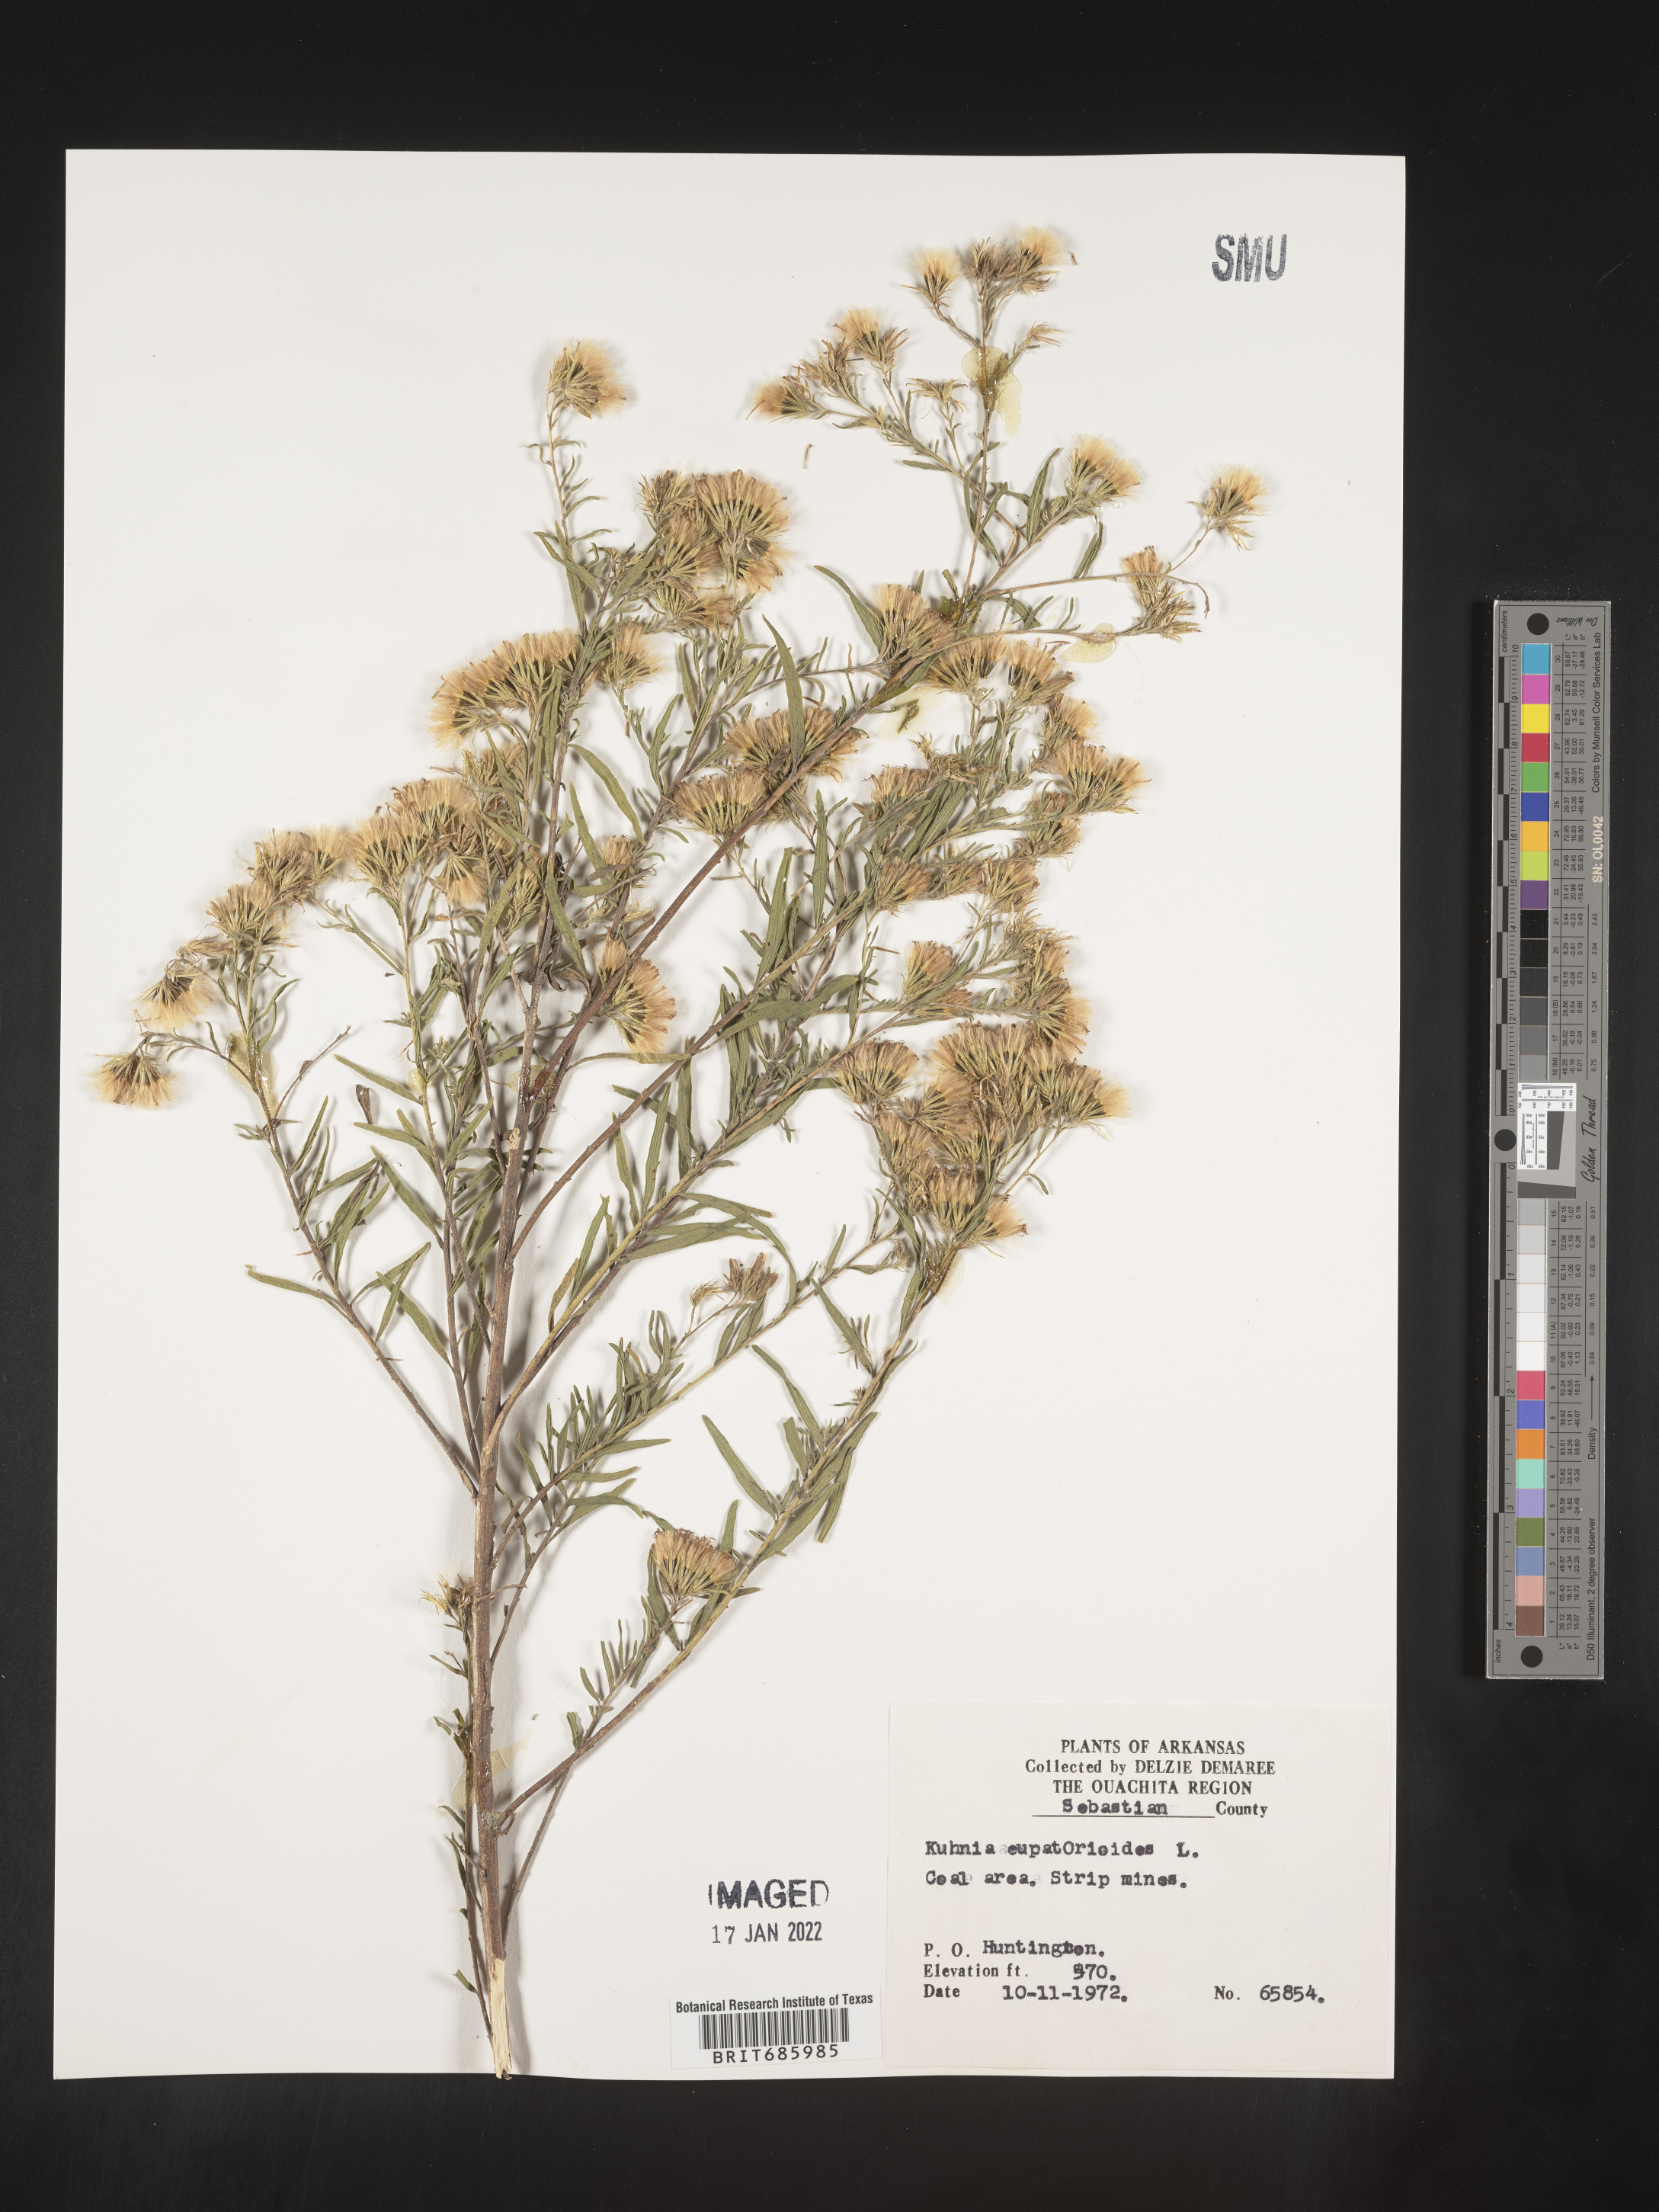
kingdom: Plantae
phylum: Tracheophyta
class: Magnoliopsida
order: Asterales
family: Asteraceae
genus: Brickellia
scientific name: Brickellia eupatorioides
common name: False boneset
